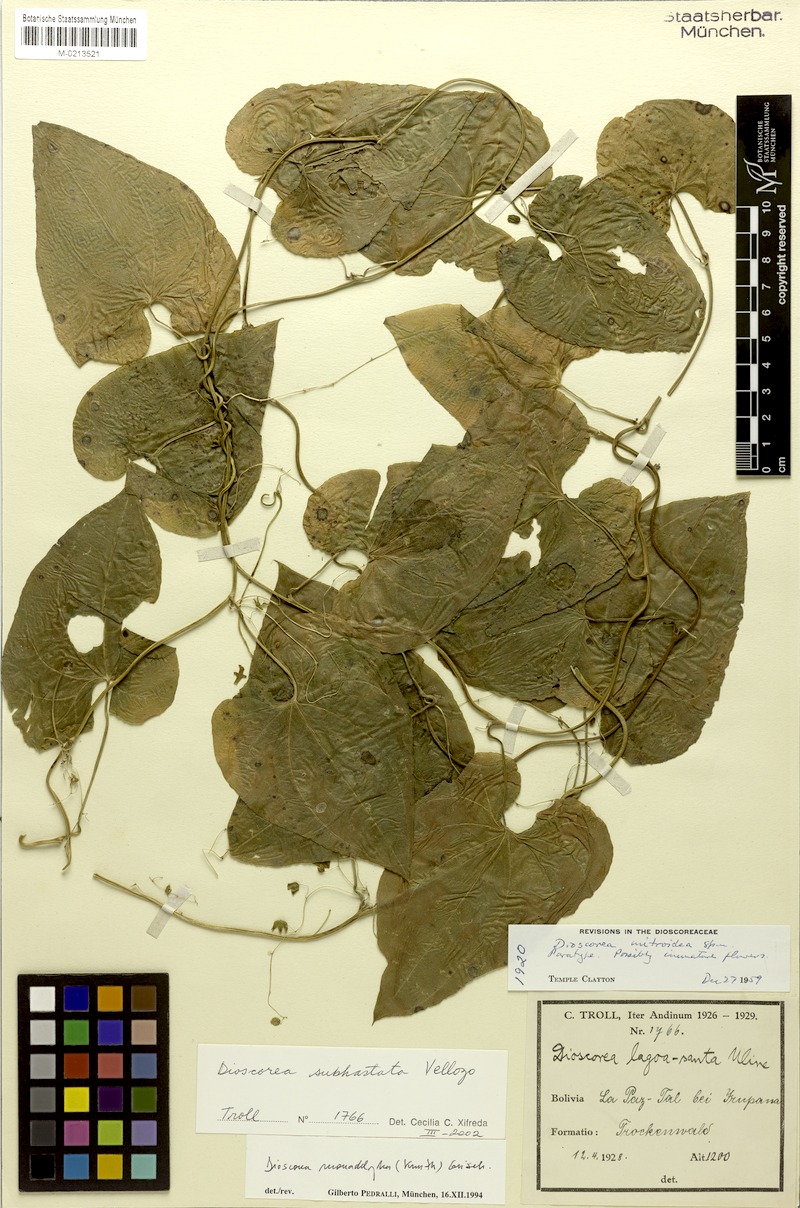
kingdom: Plantae
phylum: Tracheophyta
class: Liliopsida
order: Dioscoreales
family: Dioscoreaceae
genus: Dioscorea
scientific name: Dioscorea subhastata
